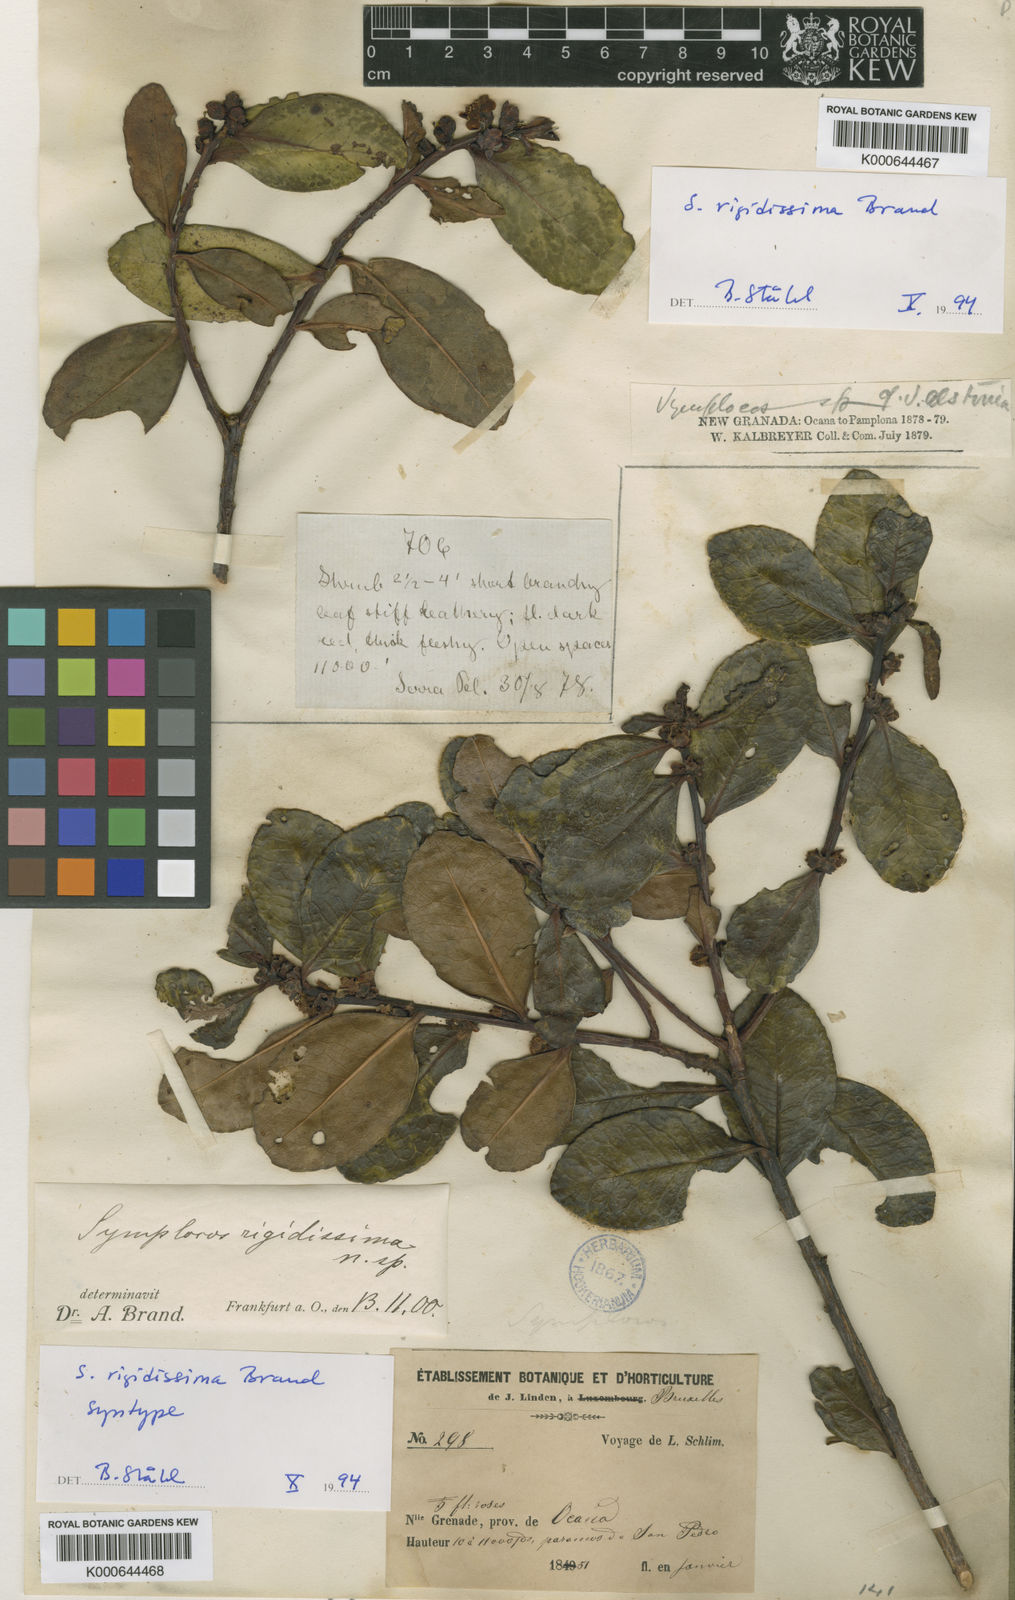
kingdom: Plantae
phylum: Tracheophyta
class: Magnoliopsida
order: Ericales
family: Symplocaceae
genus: Symplocos
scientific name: Symplocos rigidissima
